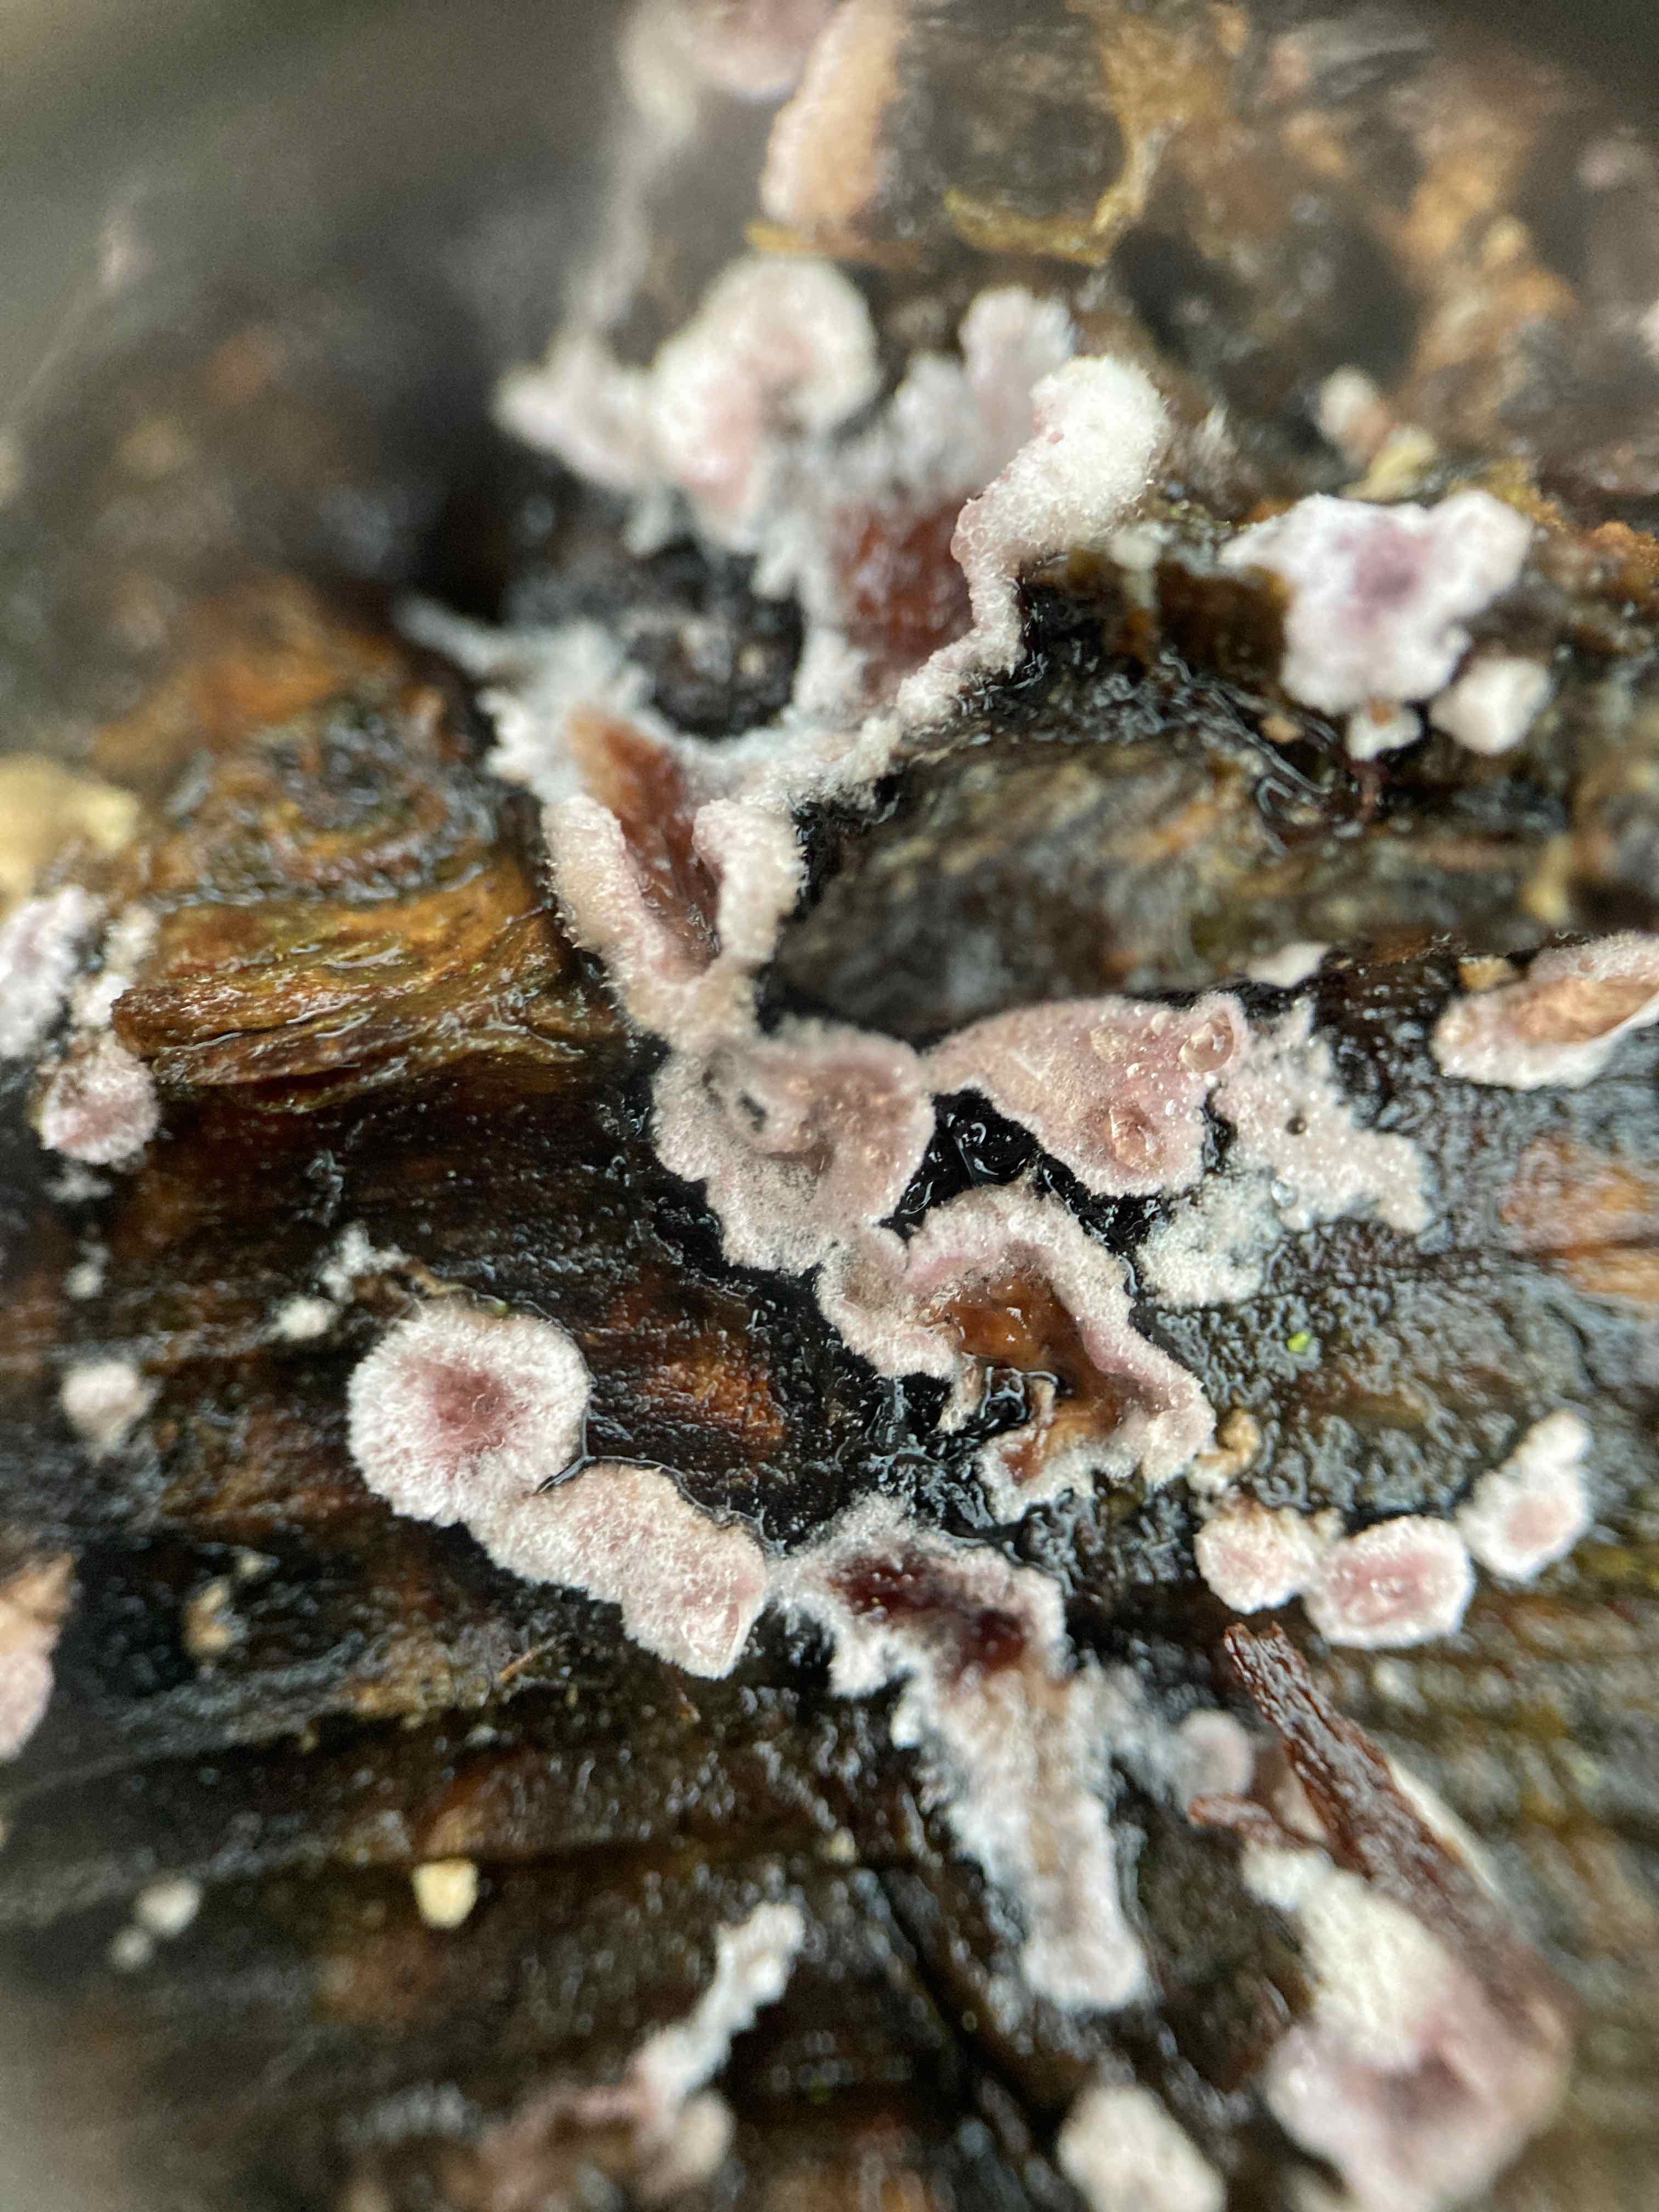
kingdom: Fungi
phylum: Basidiomycota
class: Agaricomycetes
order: Agaricales
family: Cyphellaceae
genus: Chondrostereum
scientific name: Chondrostereum purpureum
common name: purpurlædersvamp
